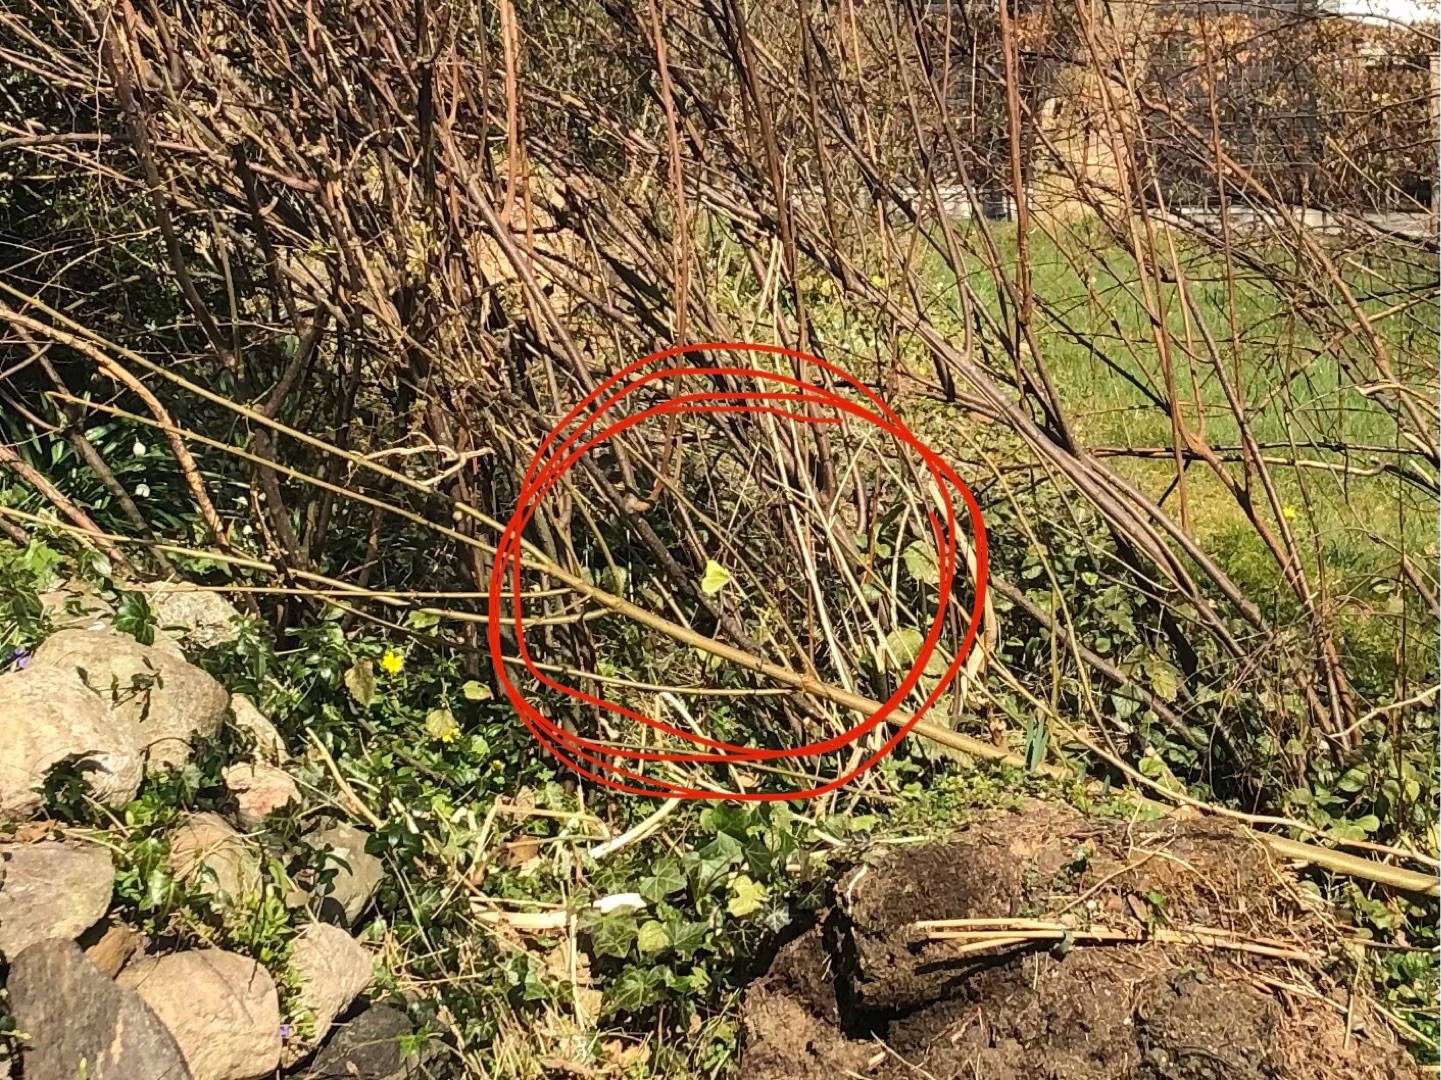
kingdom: Animalia
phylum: Arthropoda
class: Insecta
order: Lepidoptera
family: Pieridae
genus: Gonepteryx
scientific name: Gonepteryx rhamni
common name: Citronsommerfugl
